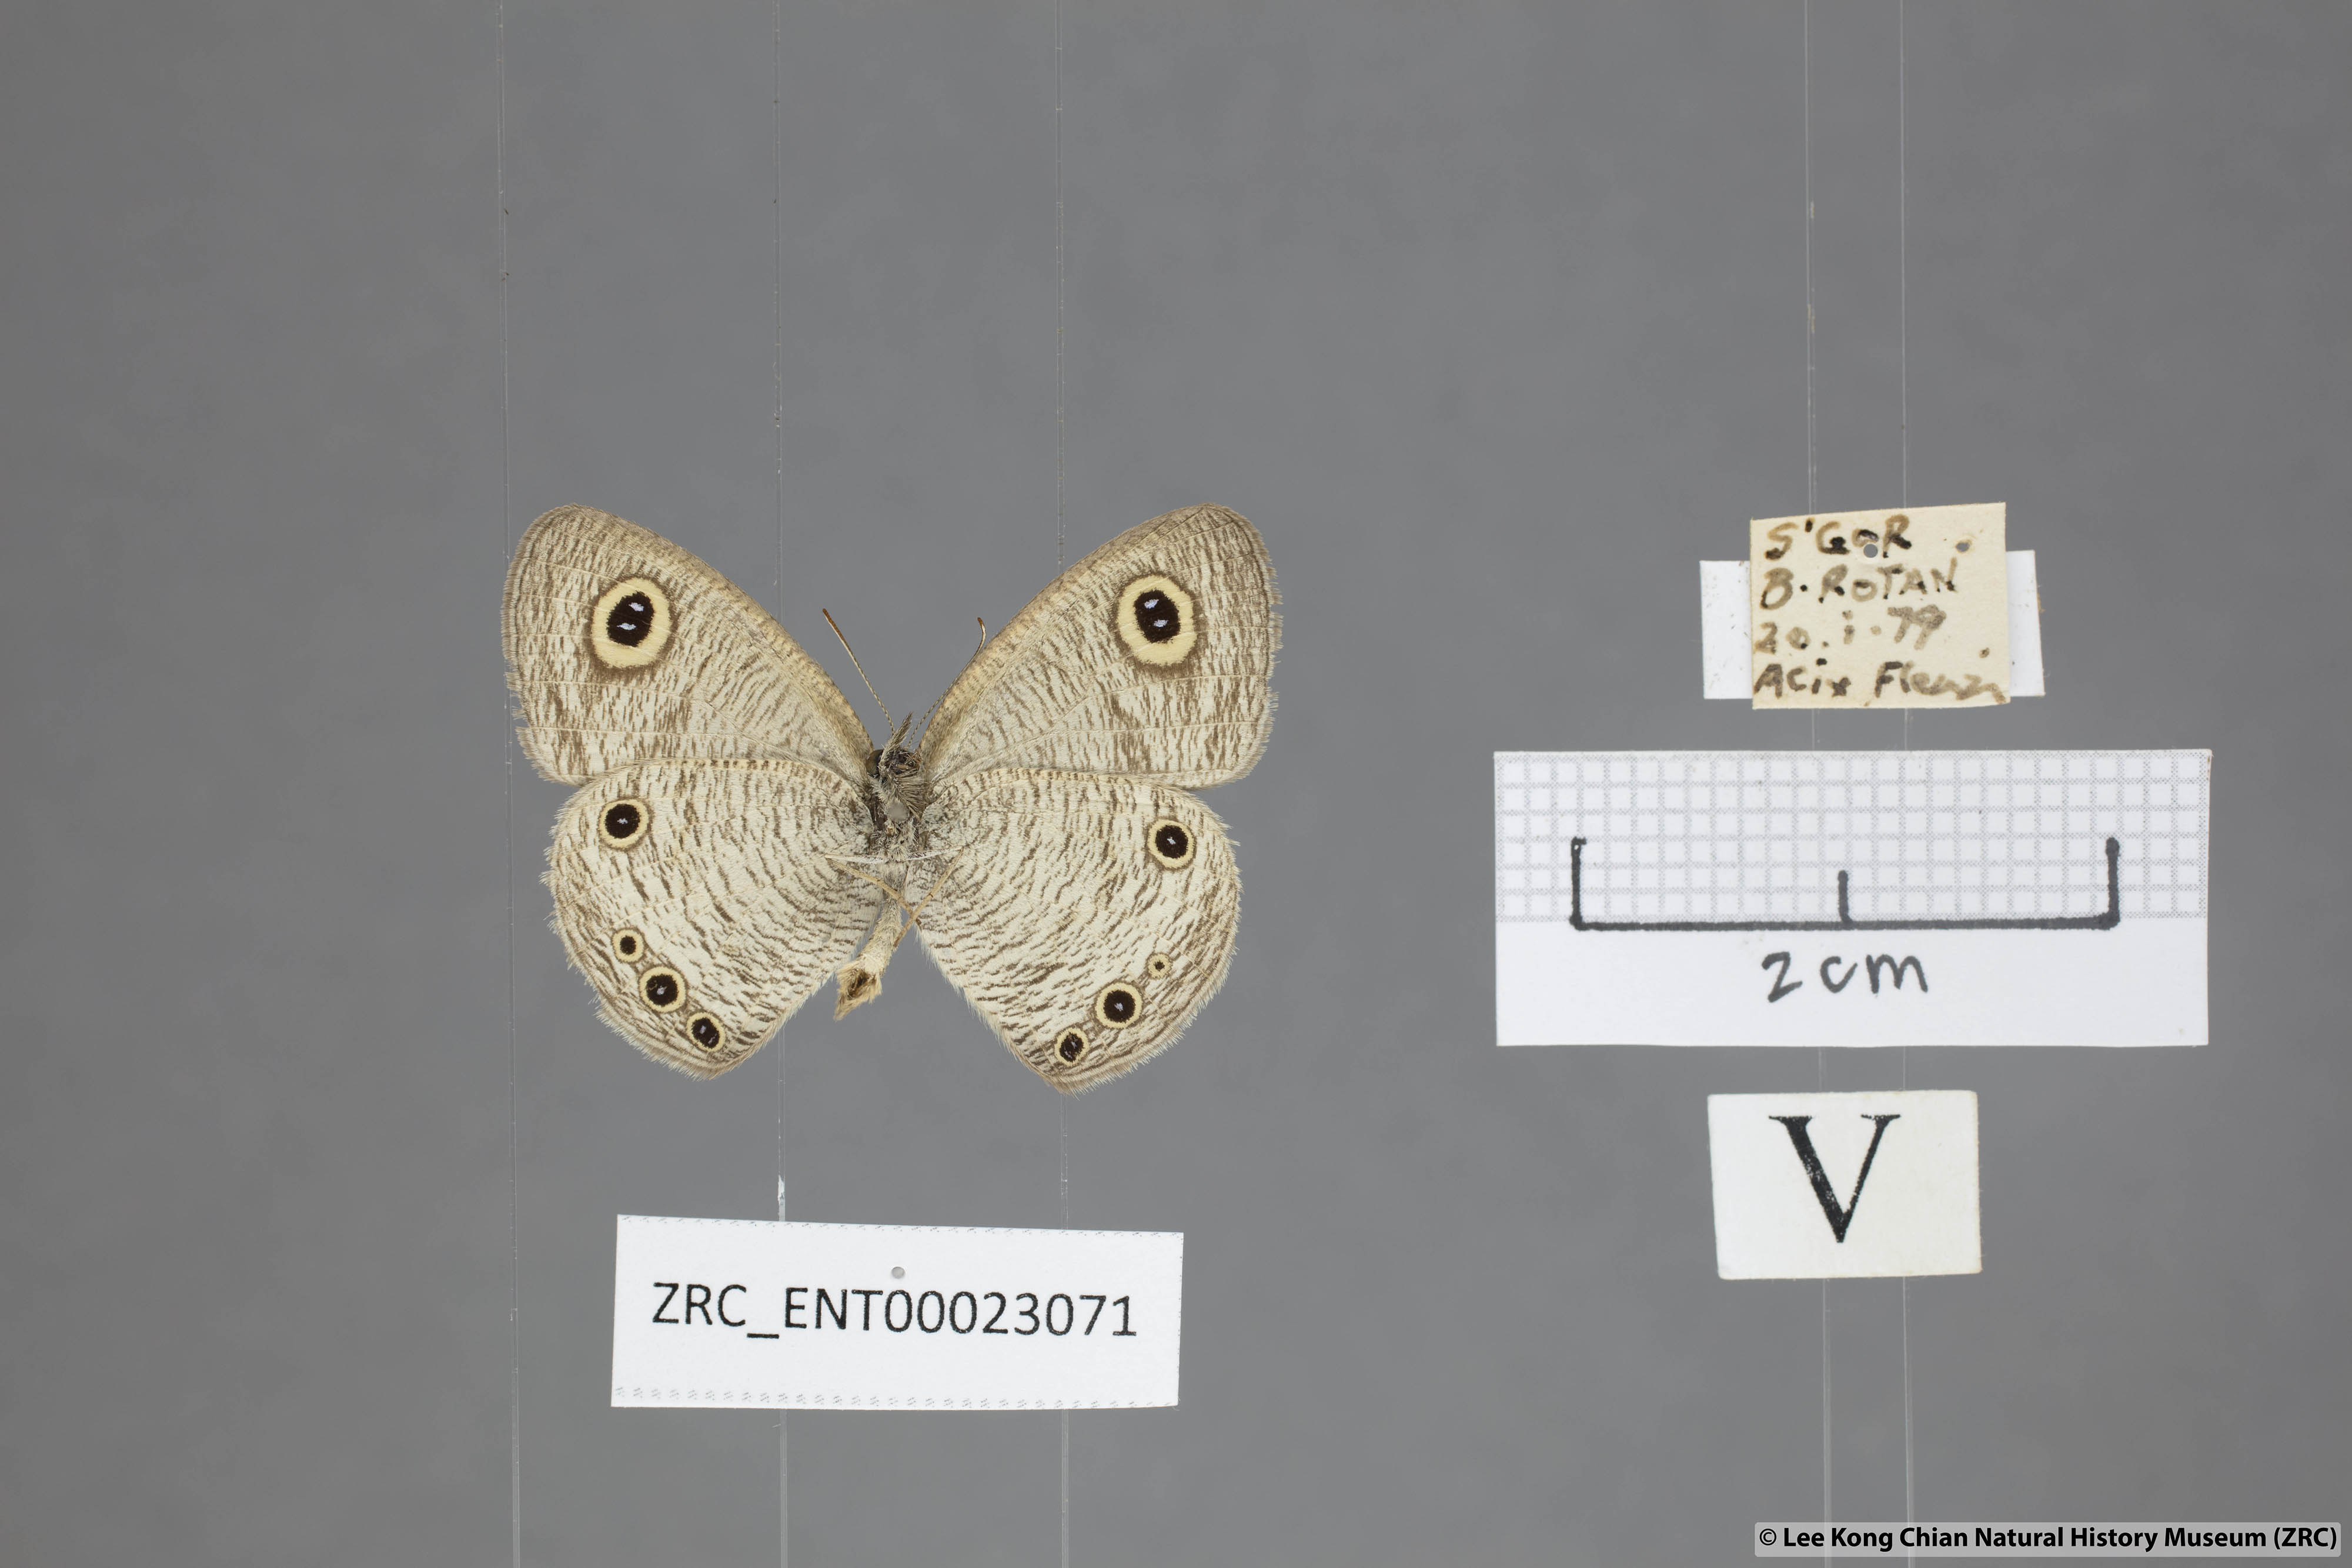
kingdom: Animalia
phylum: Arthropoda
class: Insecta
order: Lepidoptera
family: Nymphalidae
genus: Ypthima
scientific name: Ypthima huebneri
